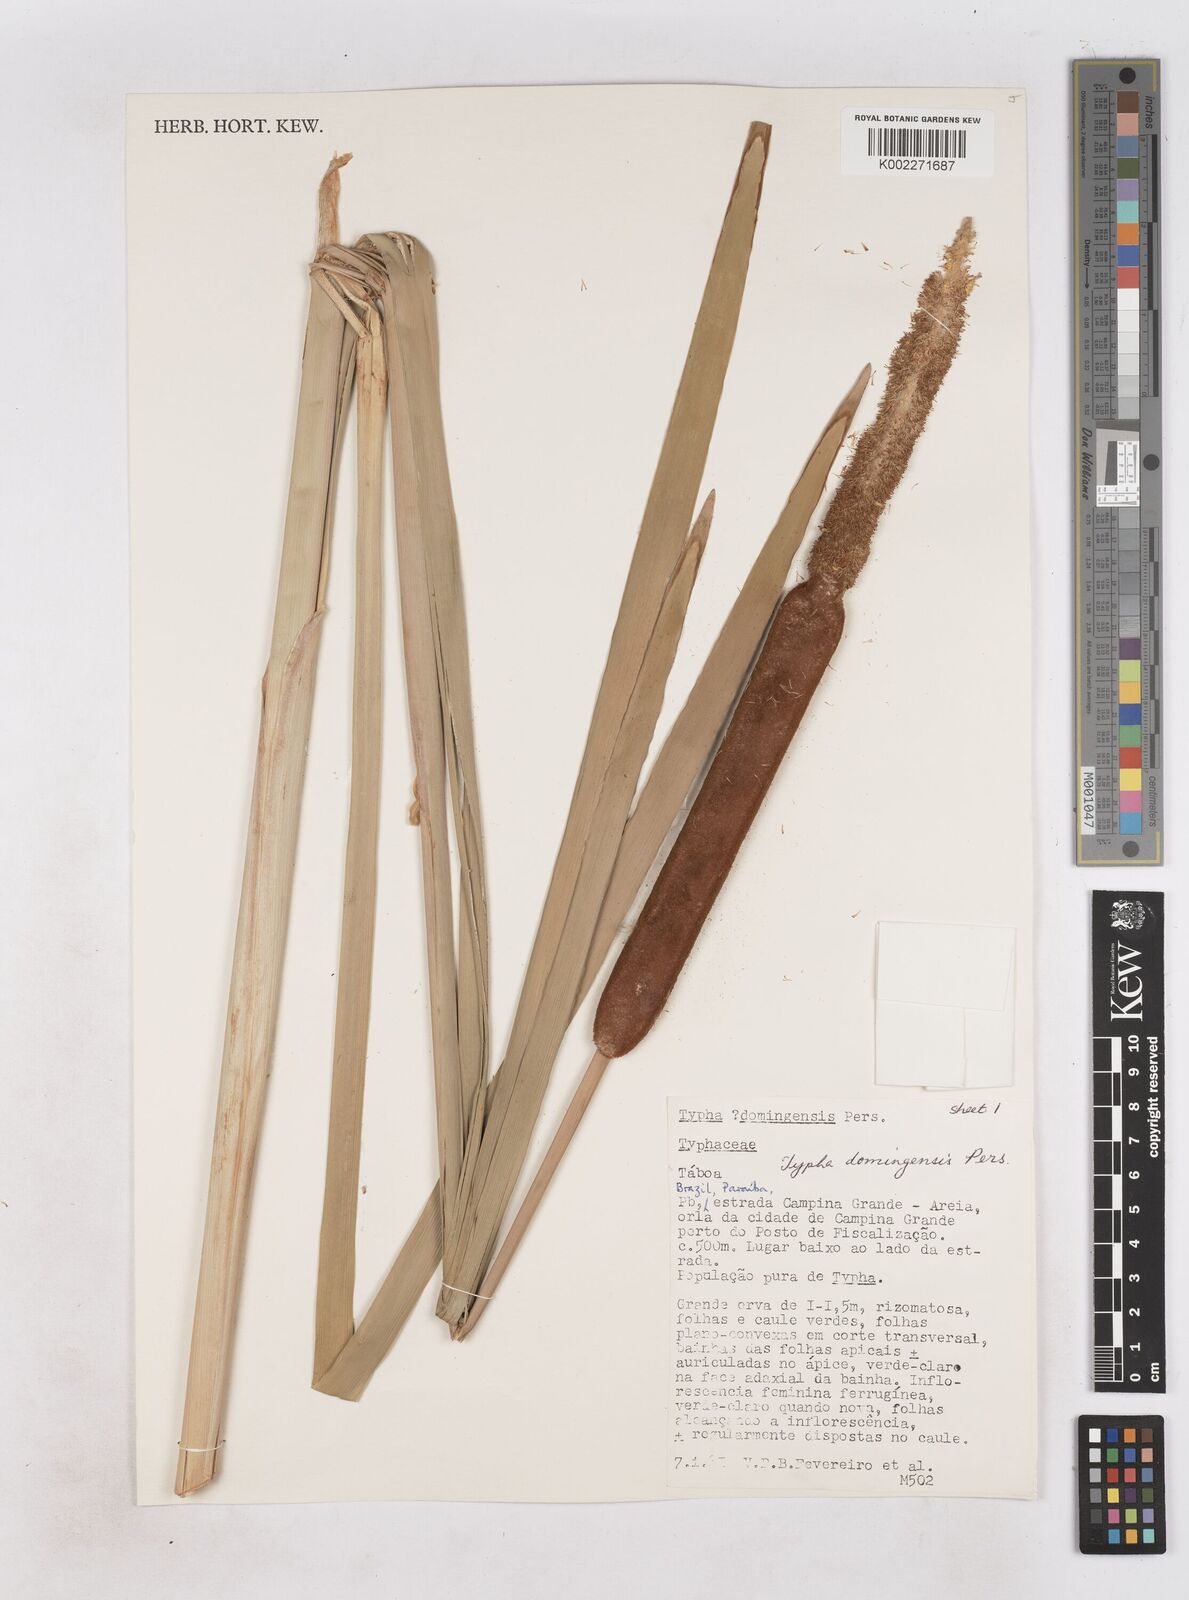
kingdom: Plantae
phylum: Tracheophyta
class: Liliopsida
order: Poales
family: Typhaceae
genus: Typha
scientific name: Typha domingensis
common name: Southern cattail
